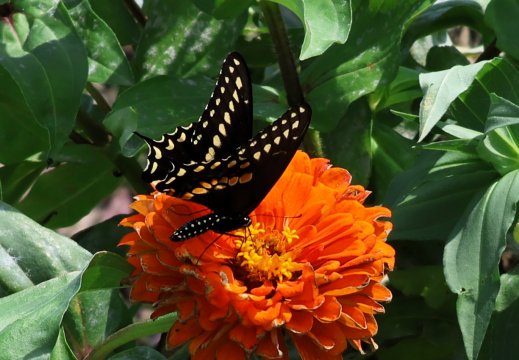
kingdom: Animalia
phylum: Arthropoda
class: Insecta
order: Lepidoptera
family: Papilionidae
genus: Papilio
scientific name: Papilio polyxenes
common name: Black Swallowtail
